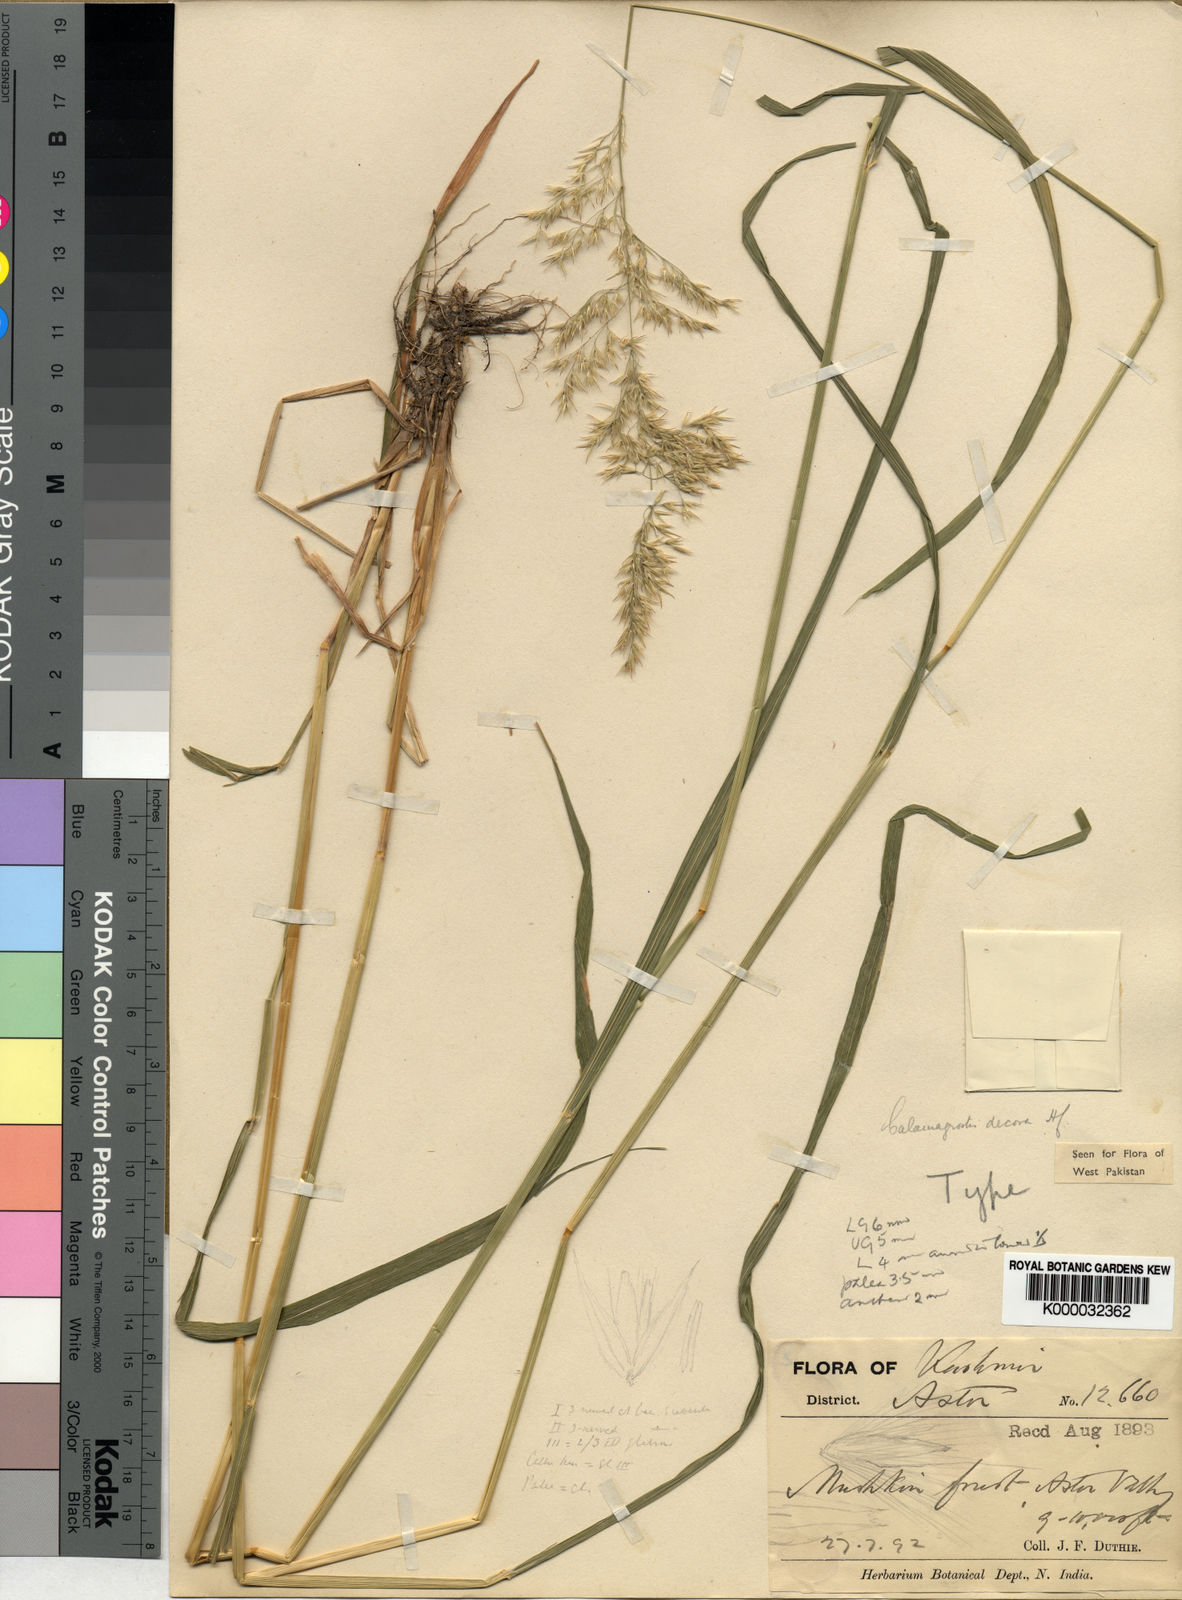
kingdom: Plantae
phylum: Tracheophyta
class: Liliopsida
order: Poales
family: Poaceae
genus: Calamagrostis
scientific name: Calamagrostis decora
